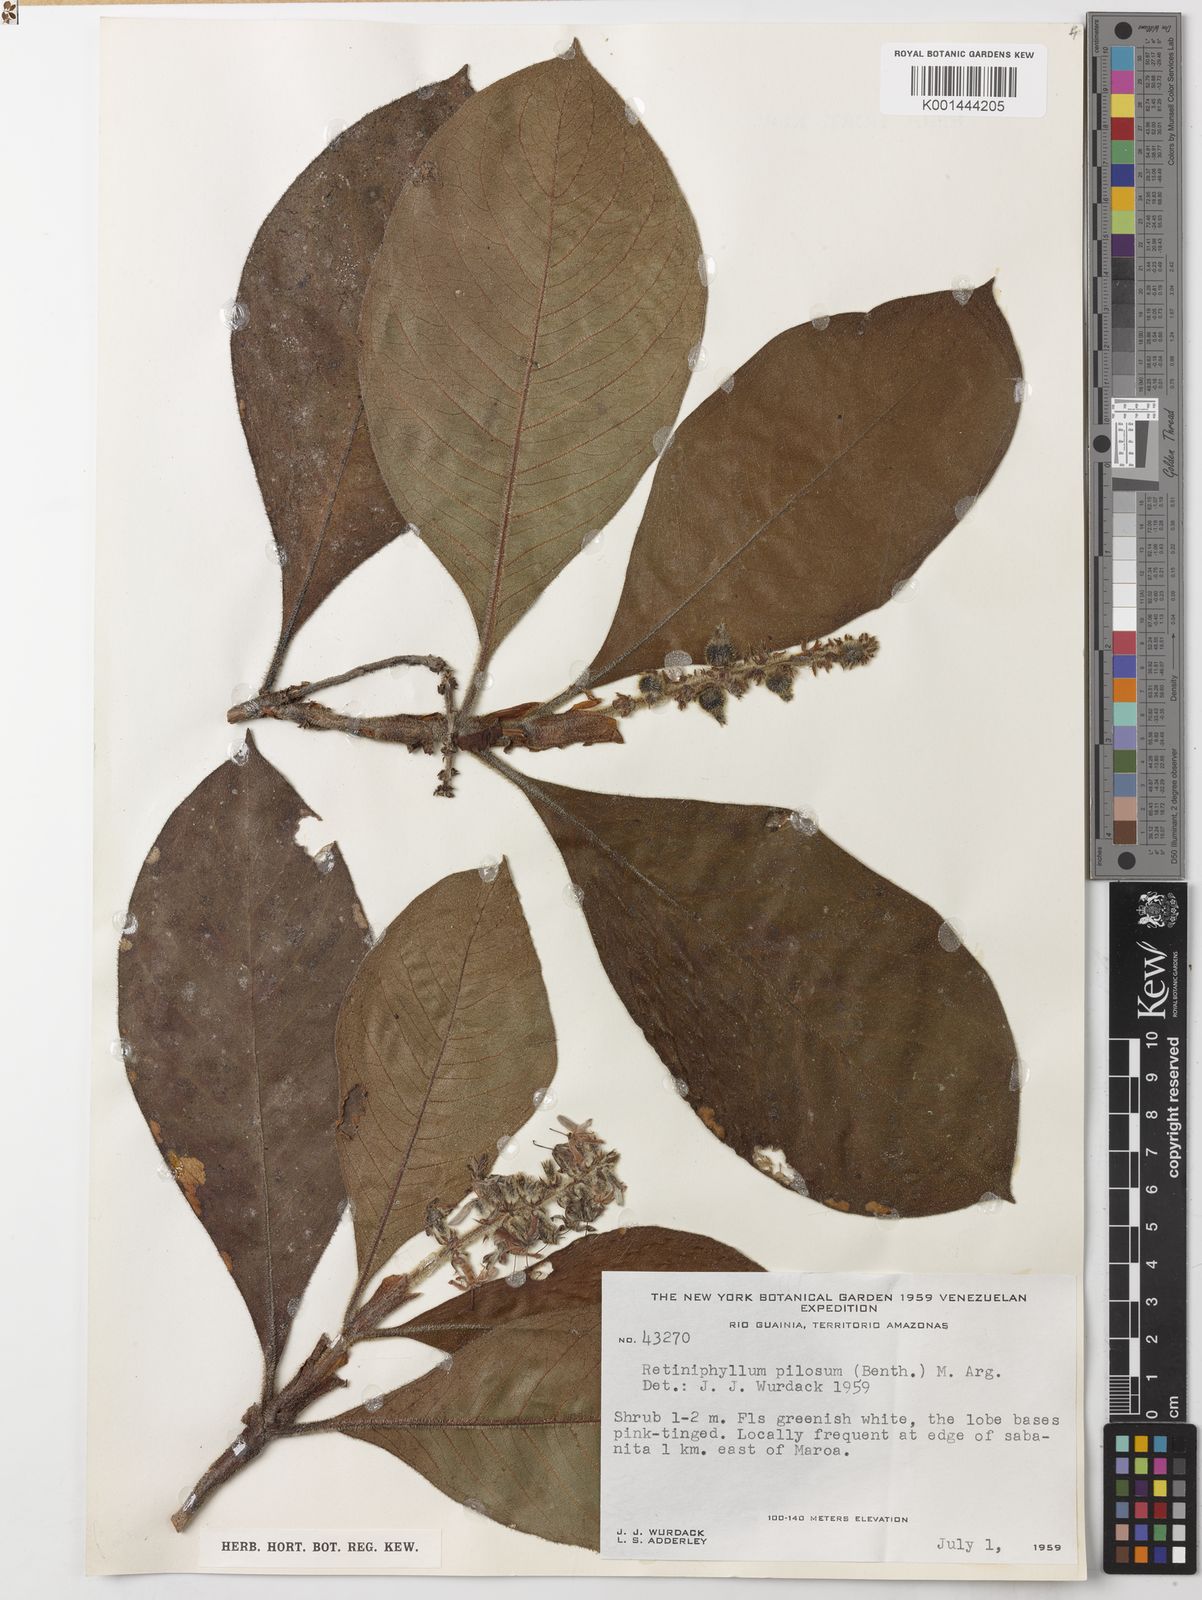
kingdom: Plantae
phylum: Tracheophyta
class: Magnoliopsida
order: Gentianales
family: Rubiaceae
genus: Retiniphyllum
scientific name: Retiniphyllum
